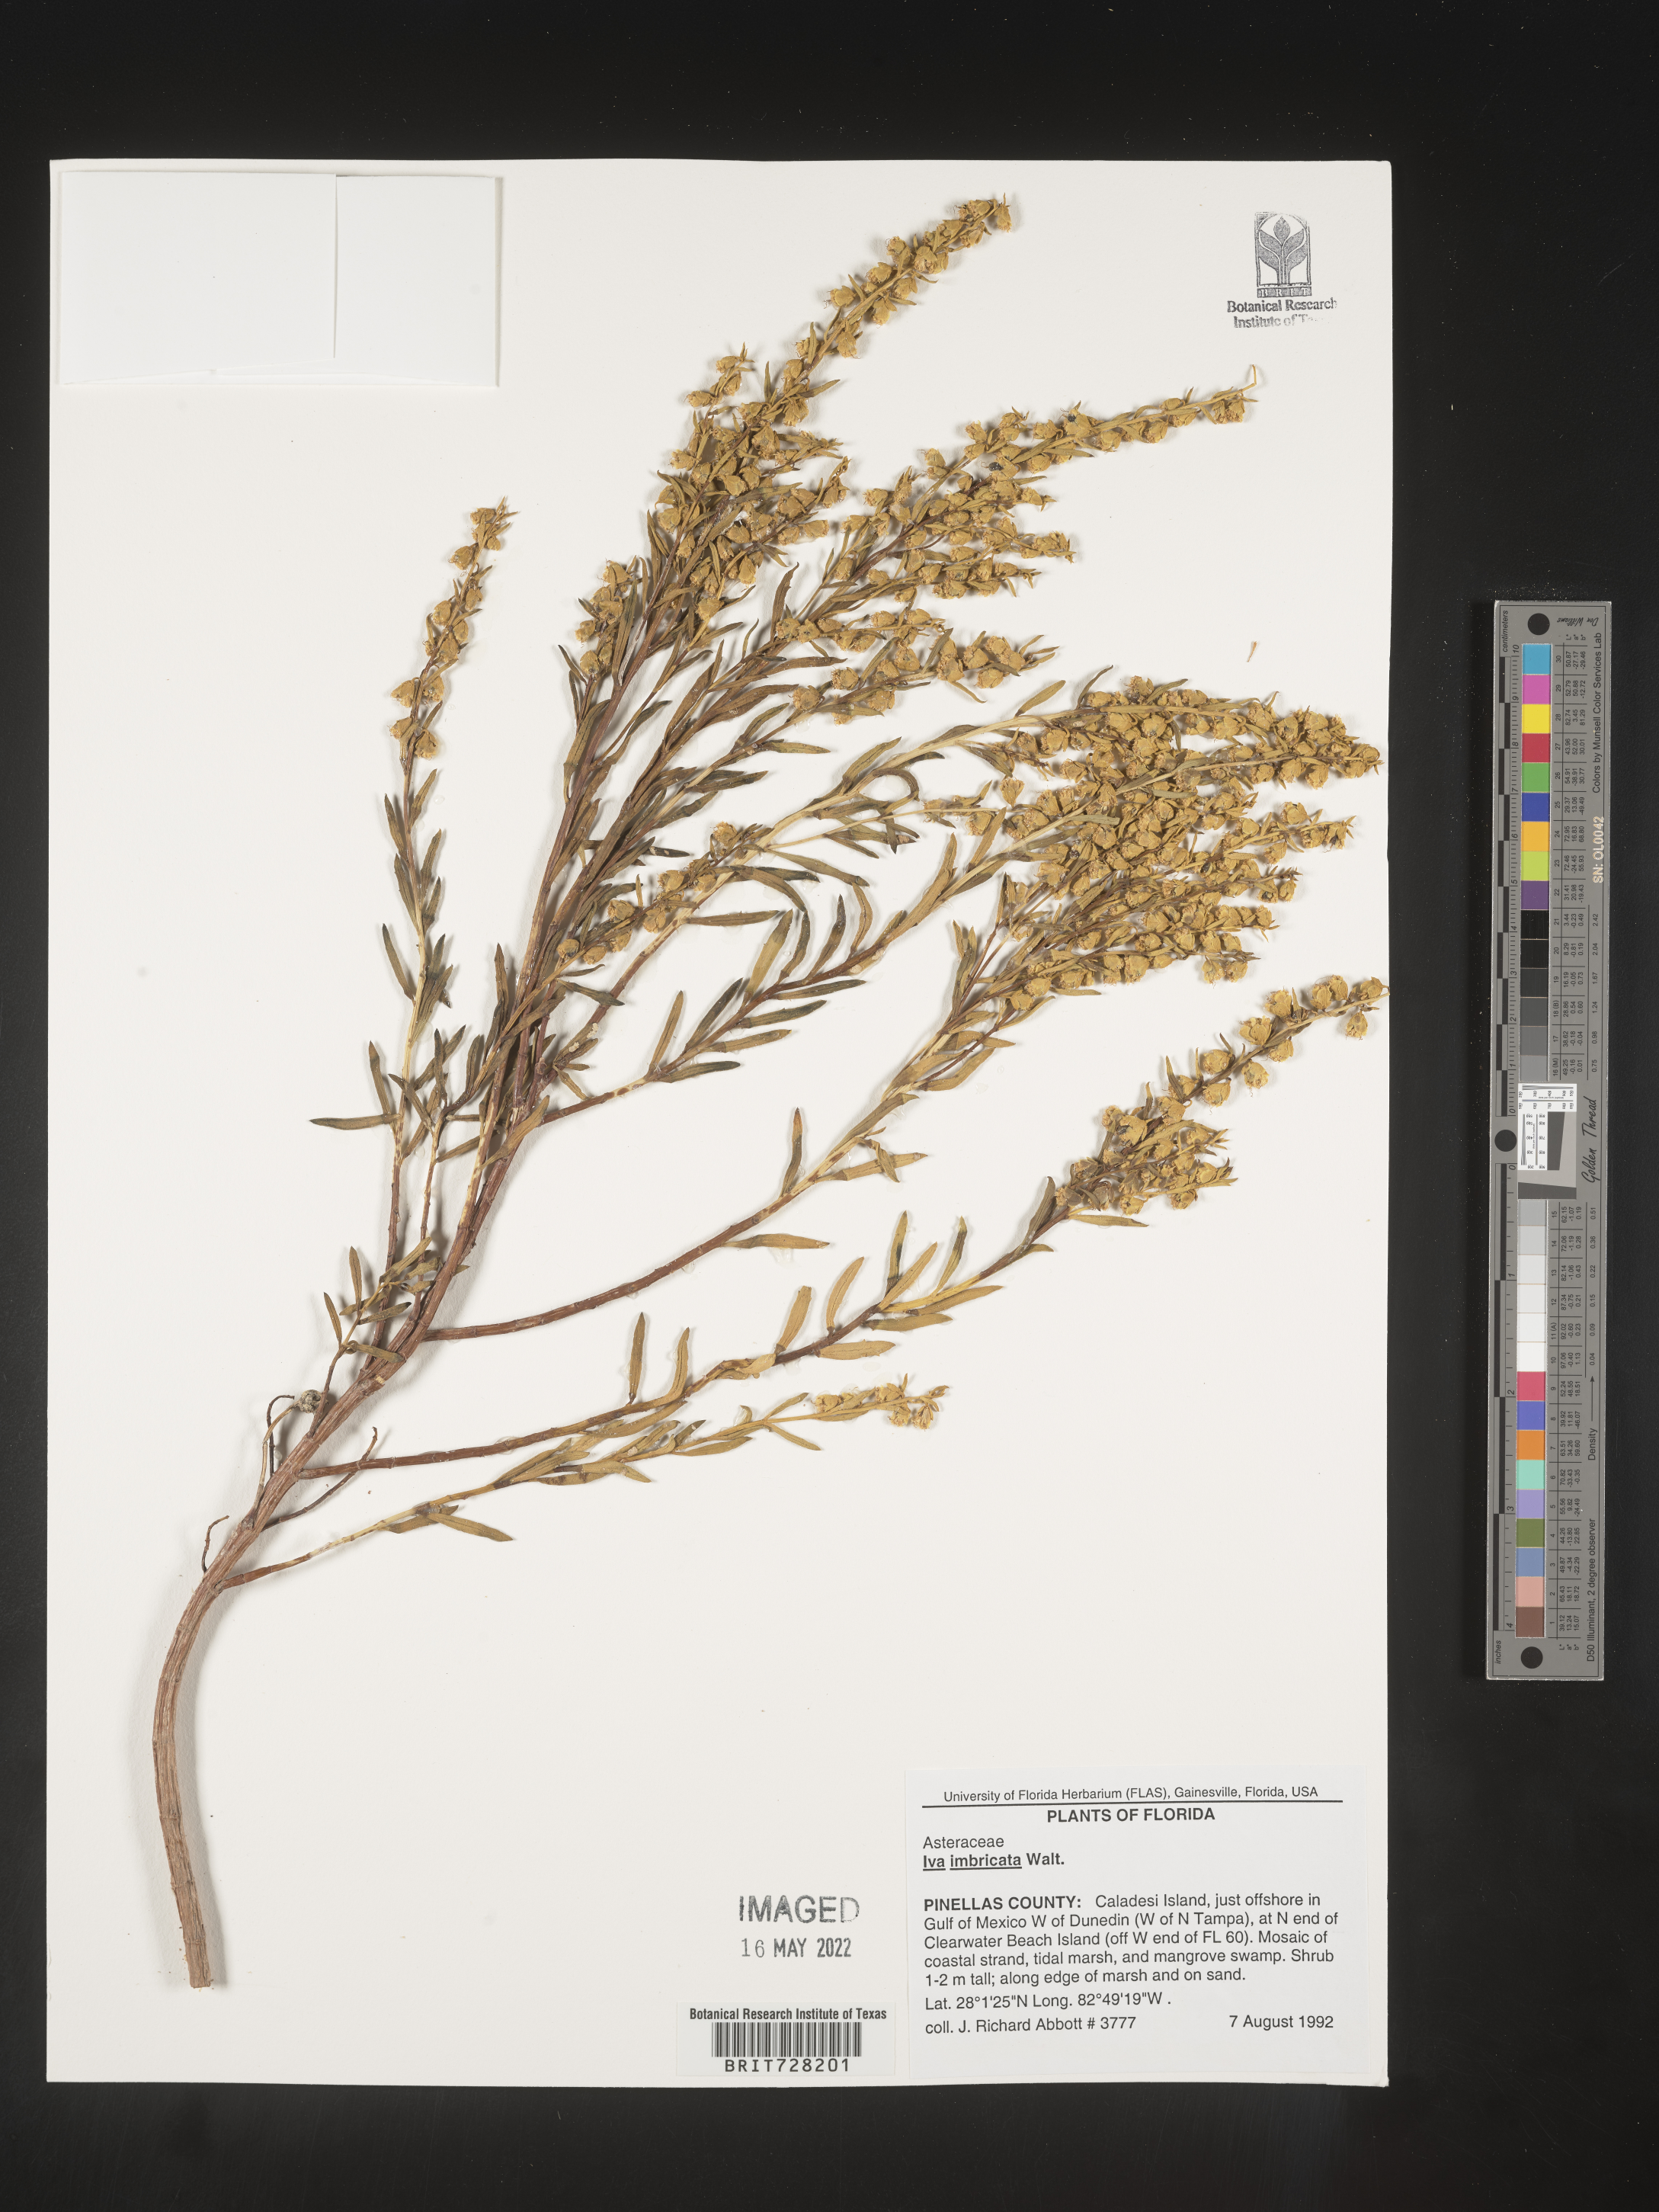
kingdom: Plantae
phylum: Tracheophyta
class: Magnoliopsida
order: Asterales
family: Asteraceae
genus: Iva
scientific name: Iva imbricata
